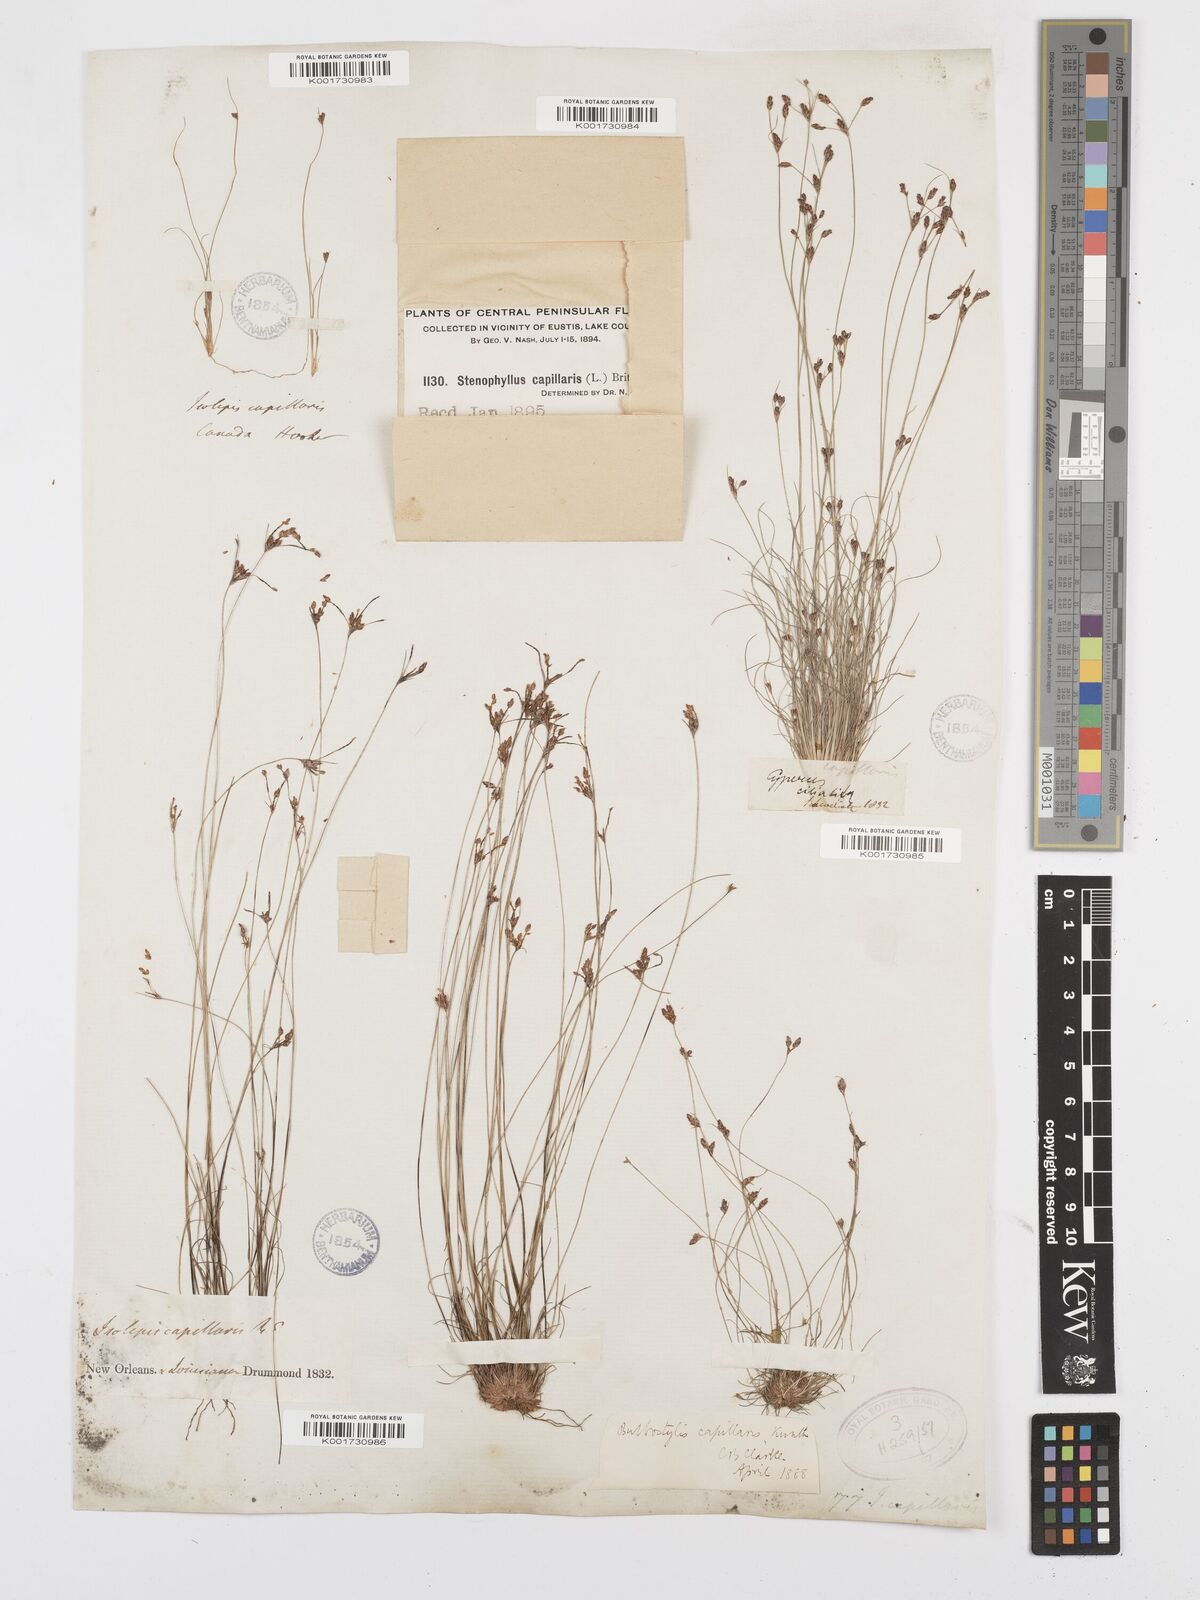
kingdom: Plantae
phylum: Tracheophyta
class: Liliopsida
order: Poales
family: Cyperaceae
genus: Bulbostylis
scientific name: Bulbostylis capillaris
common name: Densetuft hairsedge
